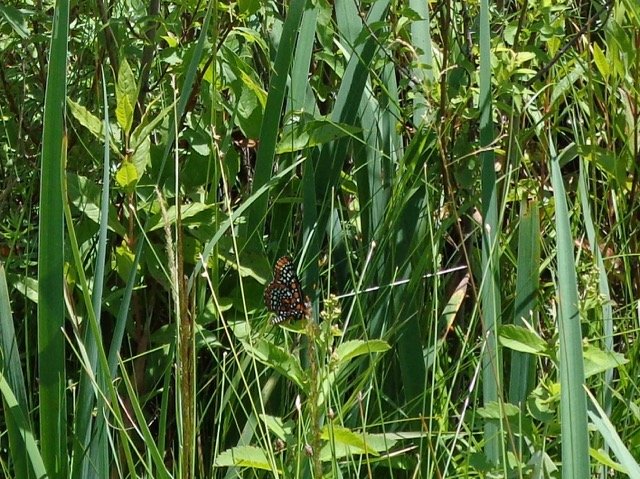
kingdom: Animalia
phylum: Arthropoda
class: Insecta
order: Lepidoptera
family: Nymphalidae
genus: Euphydryas
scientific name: Euphydryas phaeton
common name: Baltimore Checkerspot
